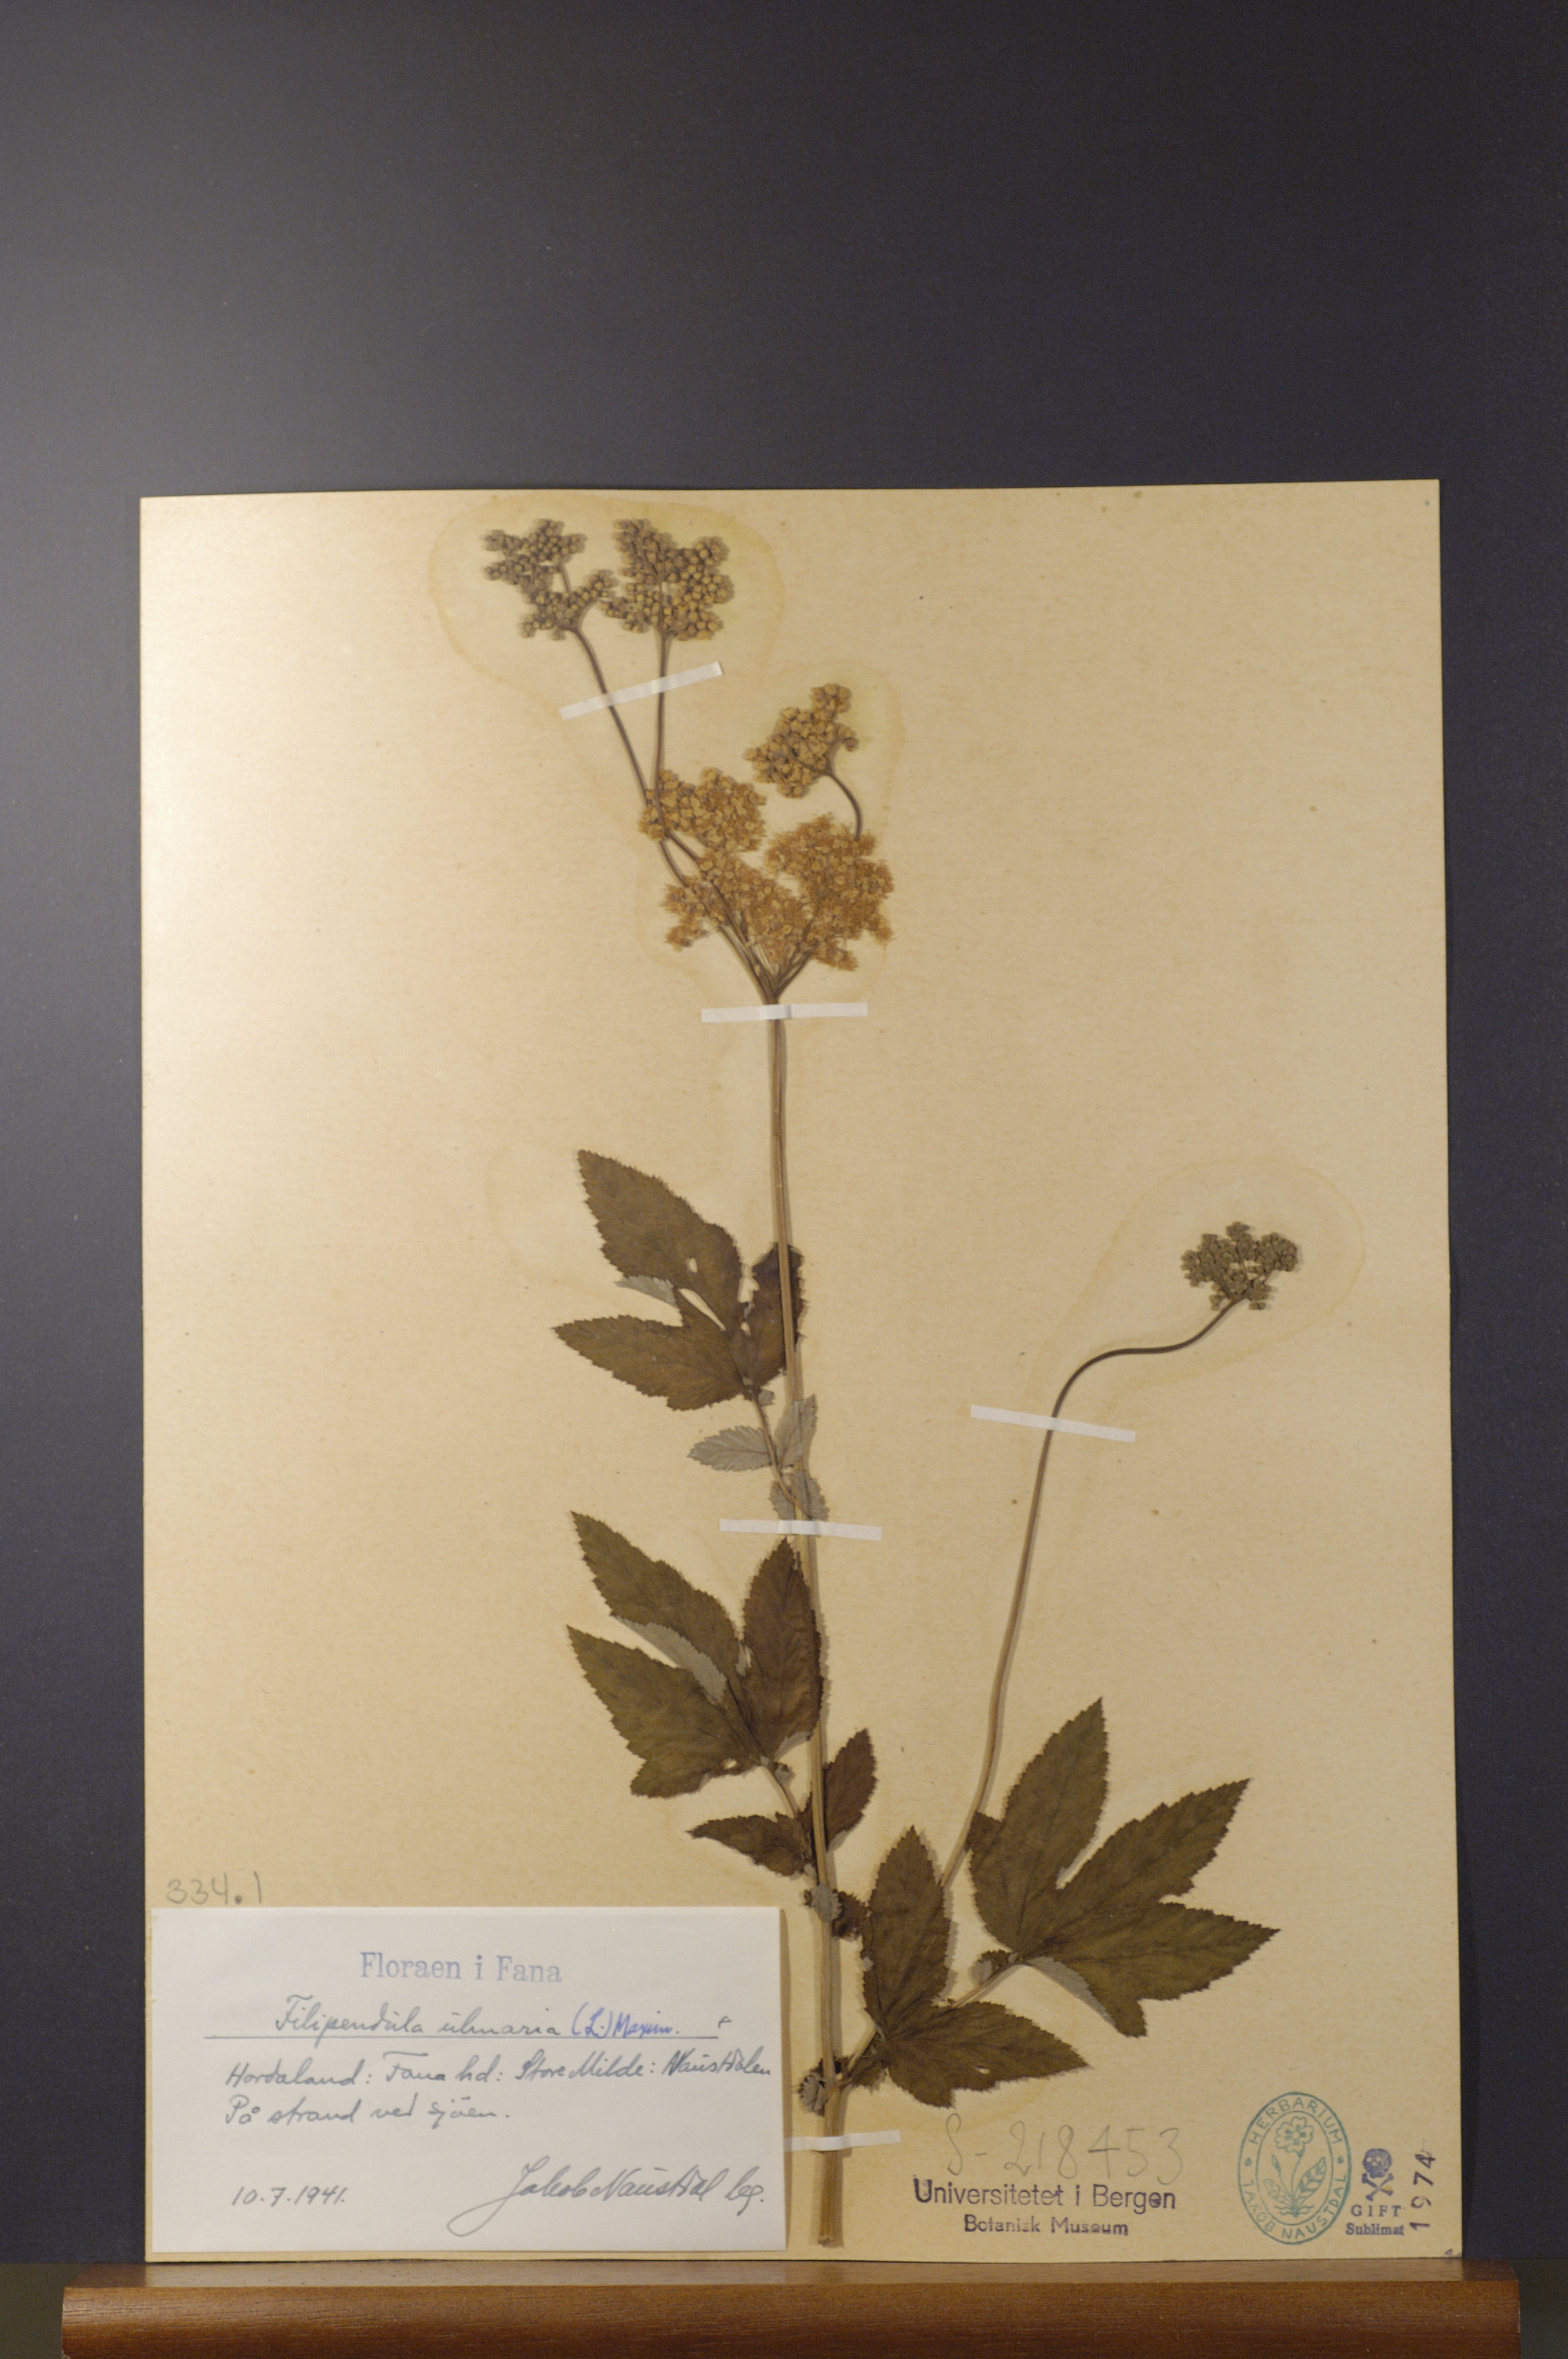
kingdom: Plantae
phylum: Tracheophyta
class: Magnoliopsida
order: Rosales
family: Rosaceae
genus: Filipendula
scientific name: Filipendula ulmaria
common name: Meadowsweet
